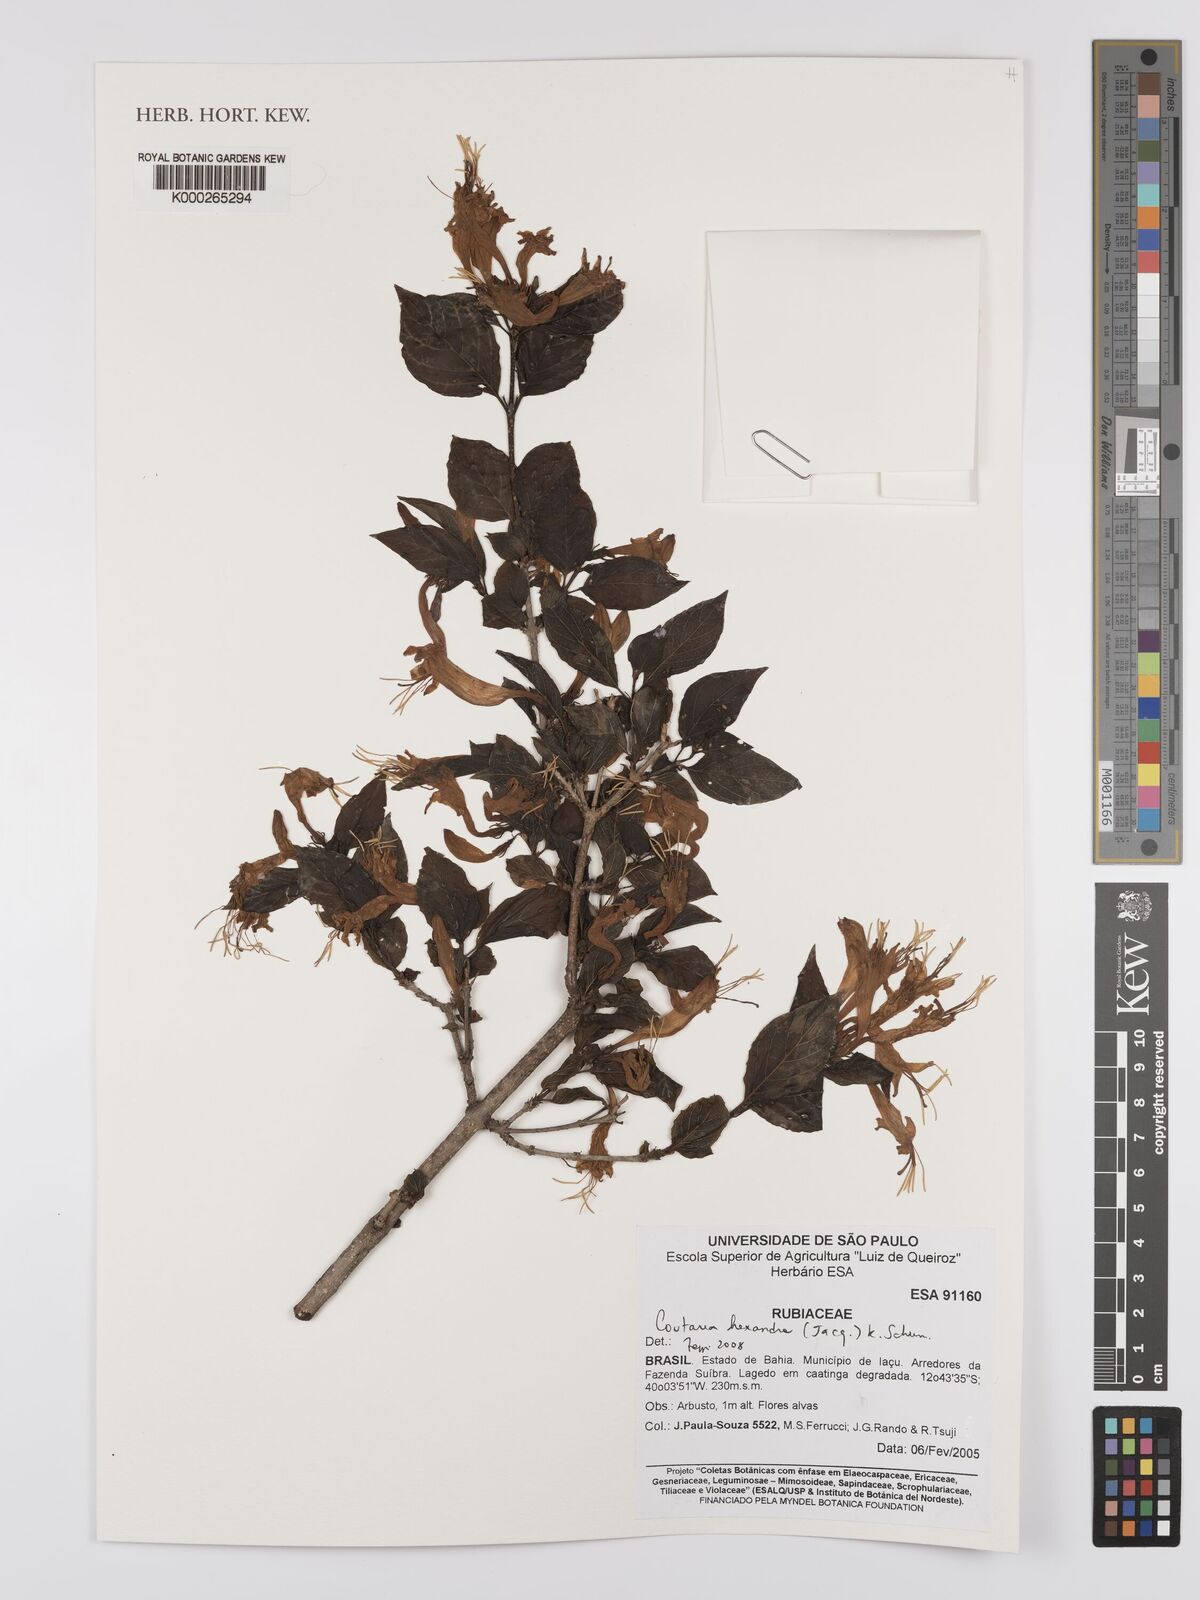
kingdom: Plantae
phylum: Tracheophyta
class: Magnoliopsida
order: Gentianales
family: Rubiaceae
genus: Coutarea
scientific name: Coutarea hexandra
